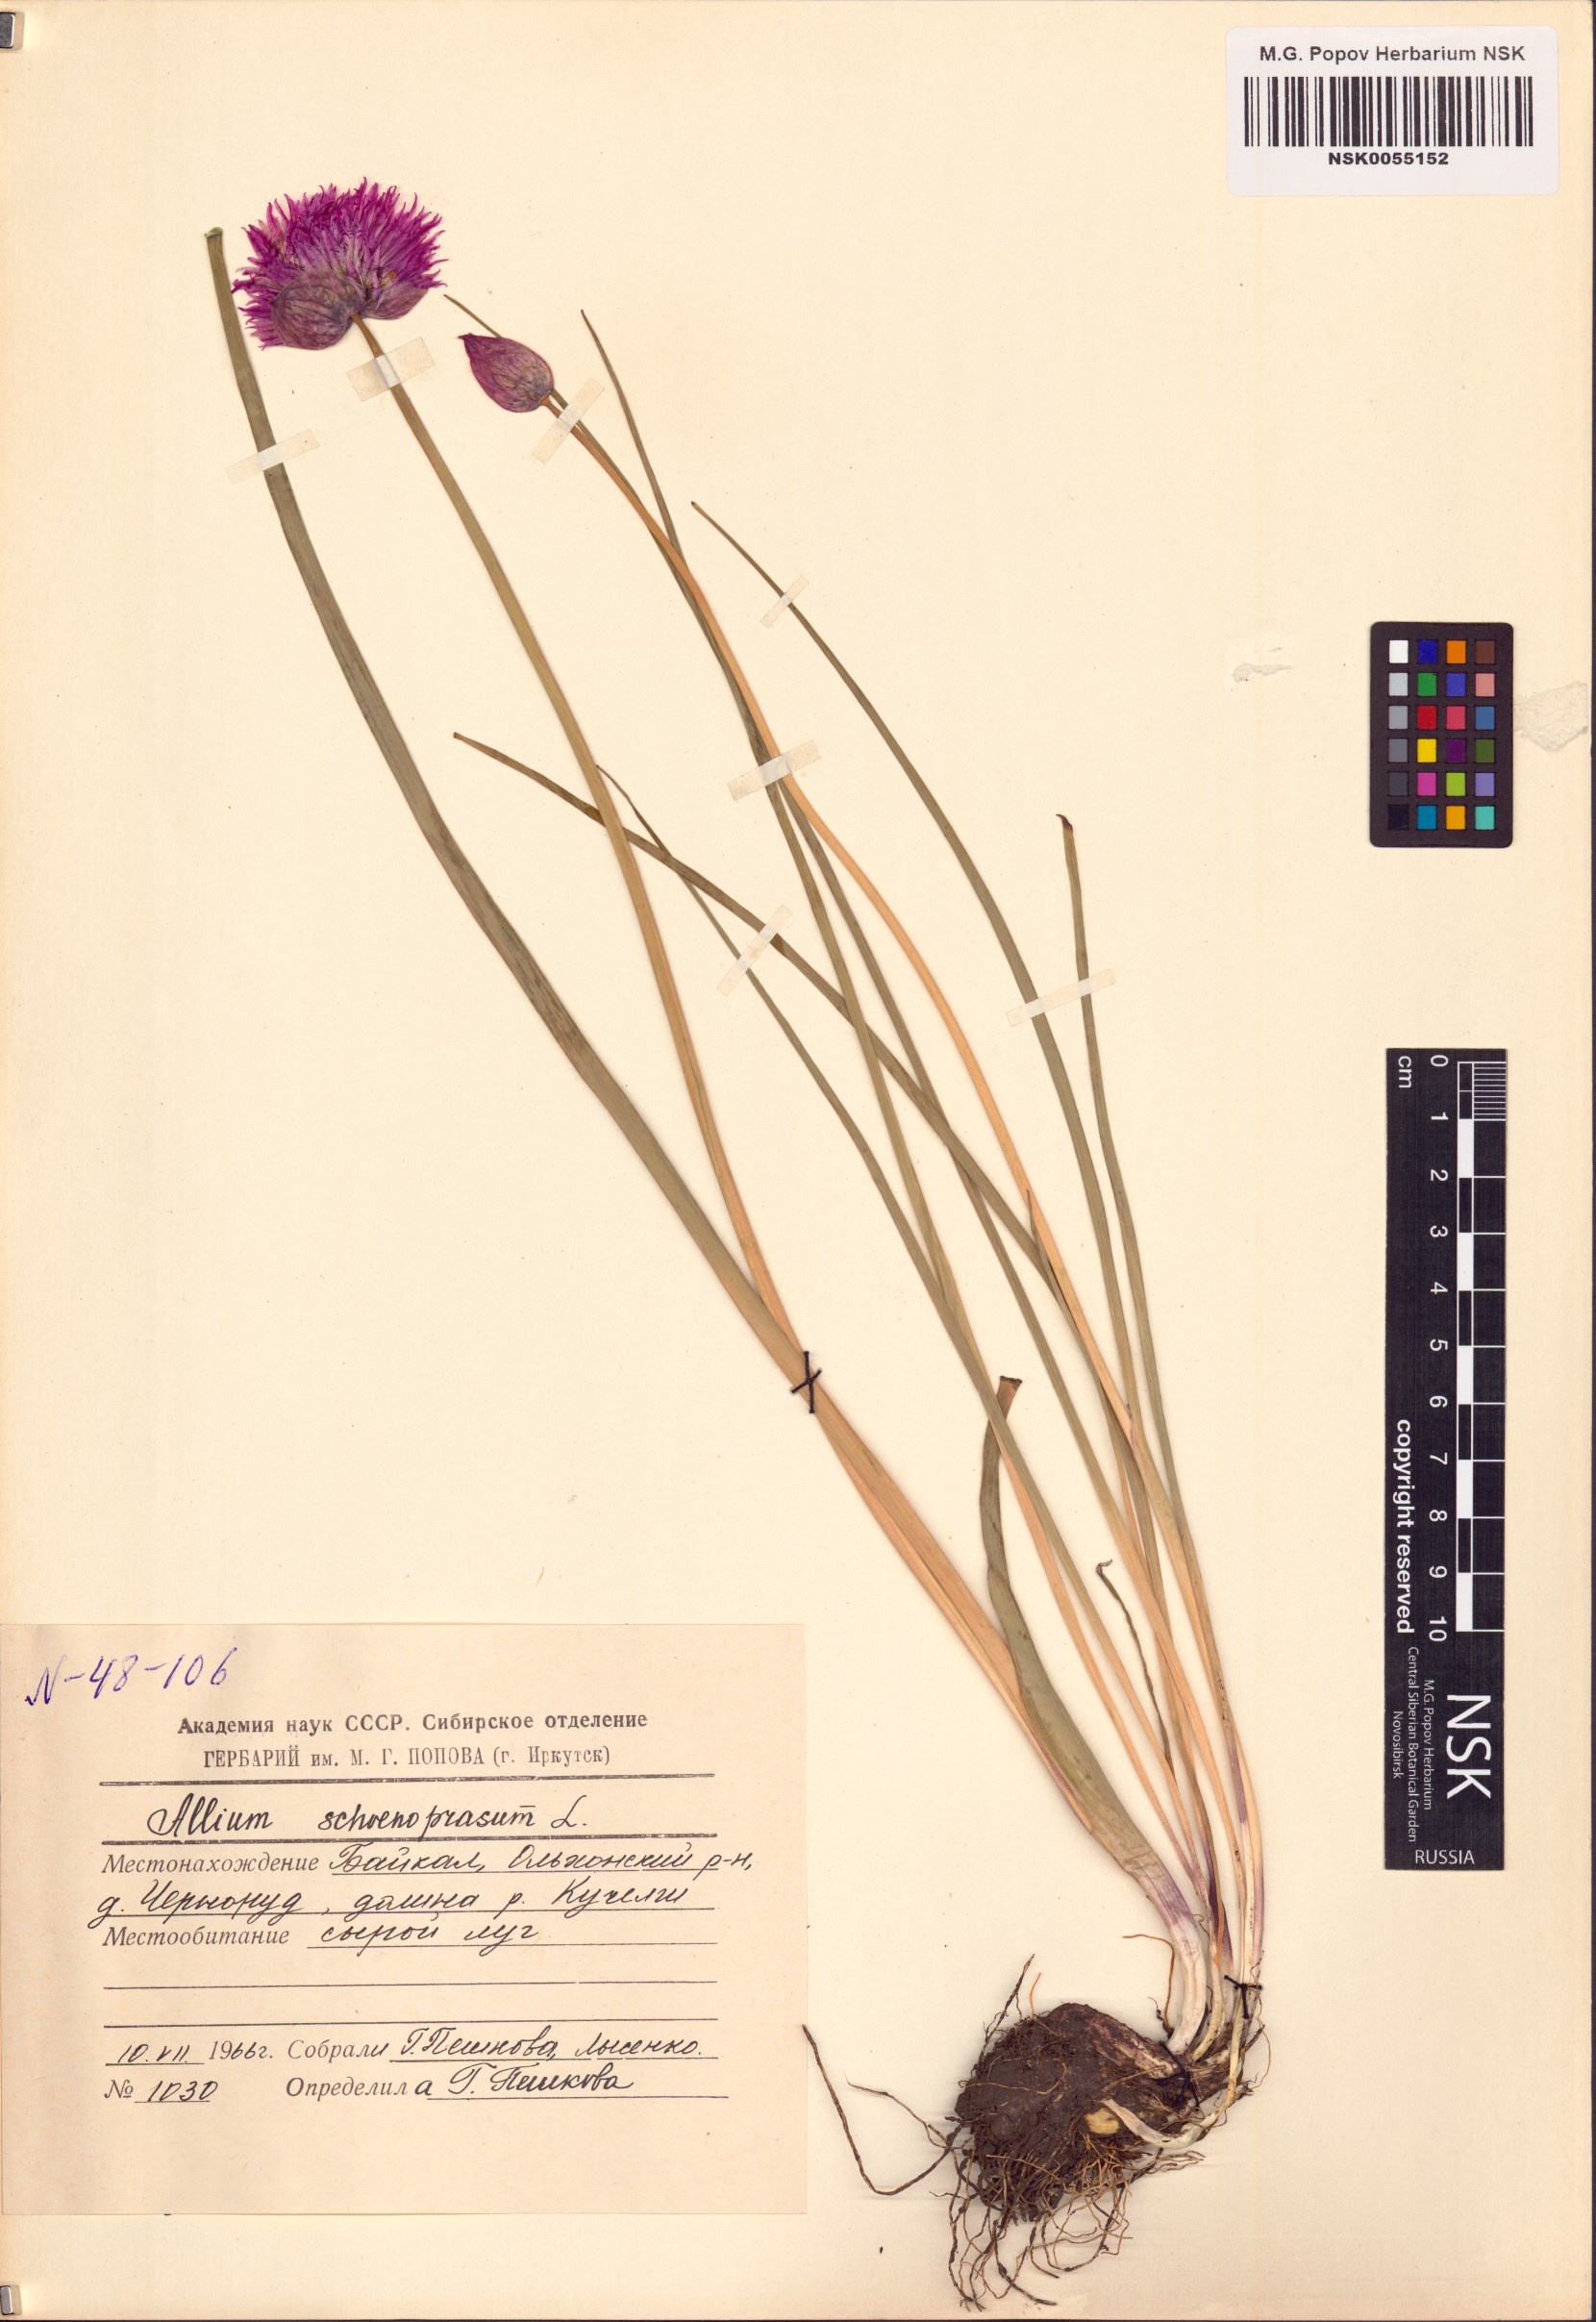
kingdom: Plantae
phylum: Tracheophyta
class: Liliopsida
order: Asparagales
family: Amaryllidaceae
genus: Allium
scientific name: Allium schoenoprasum
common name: Chives
